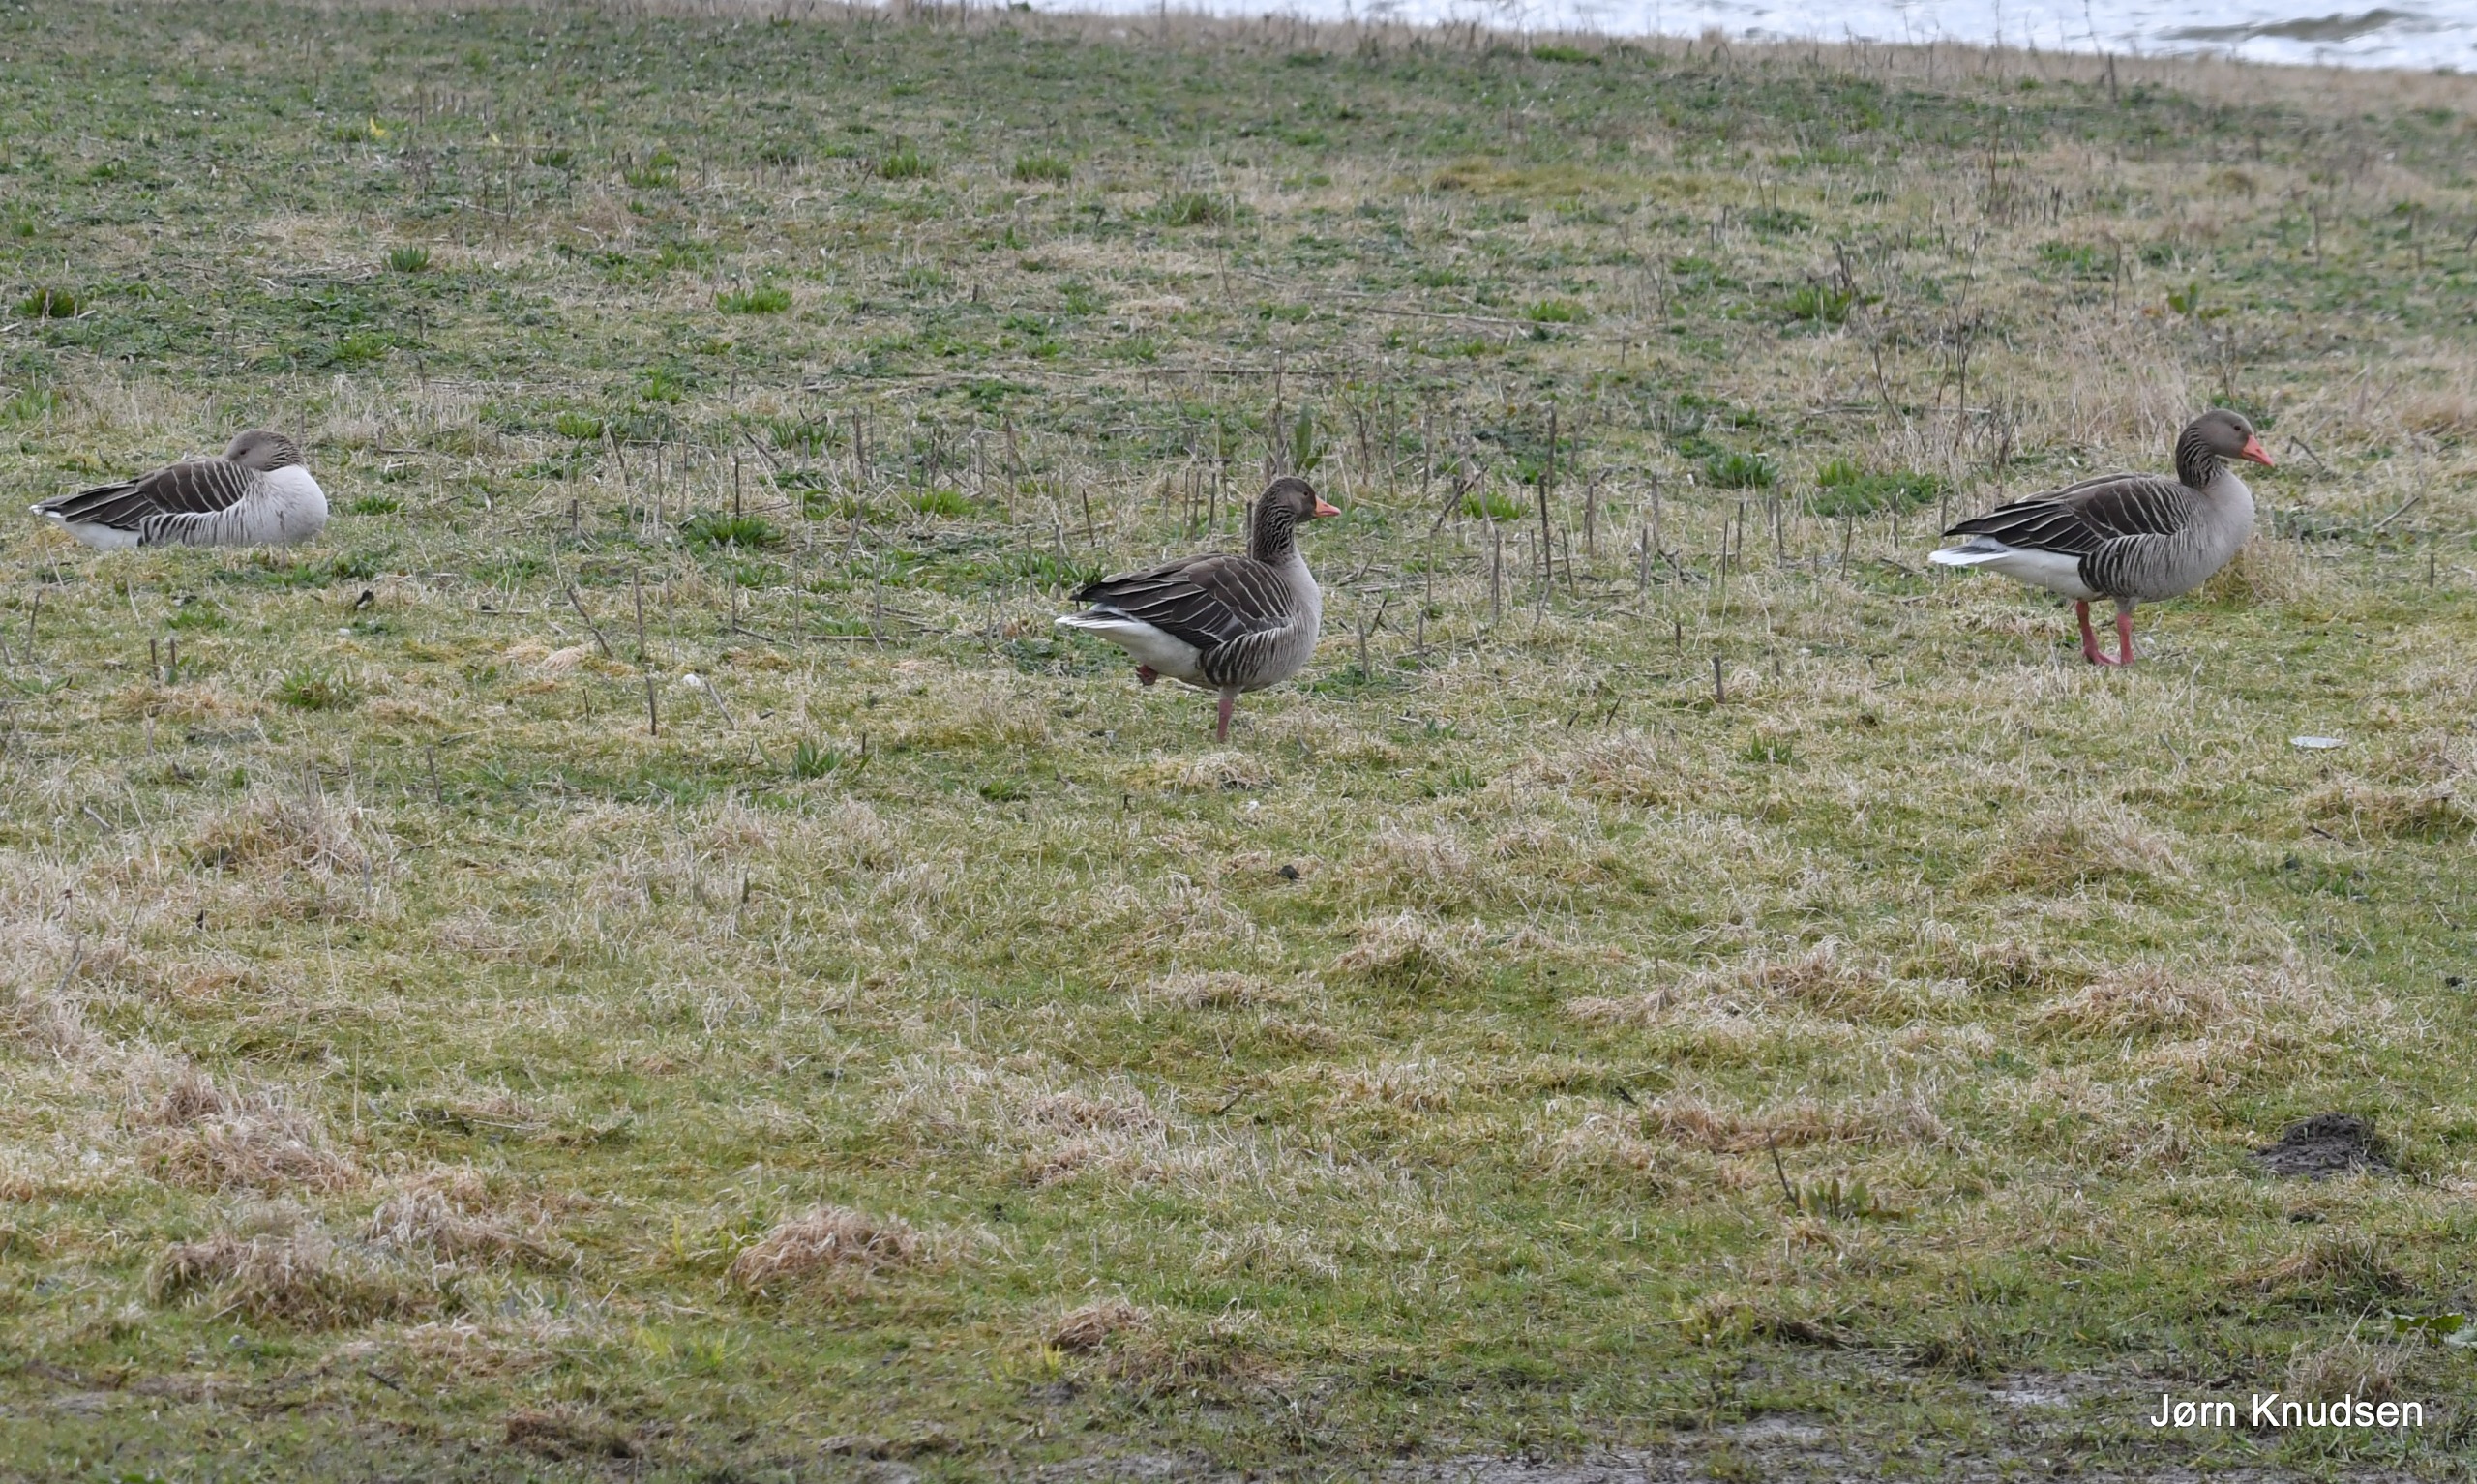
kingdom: Animalia
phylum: Chordata
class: Aves
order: Anseriformes
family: Anatidae
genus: Anser
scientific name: Anser anser
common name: Grågås
